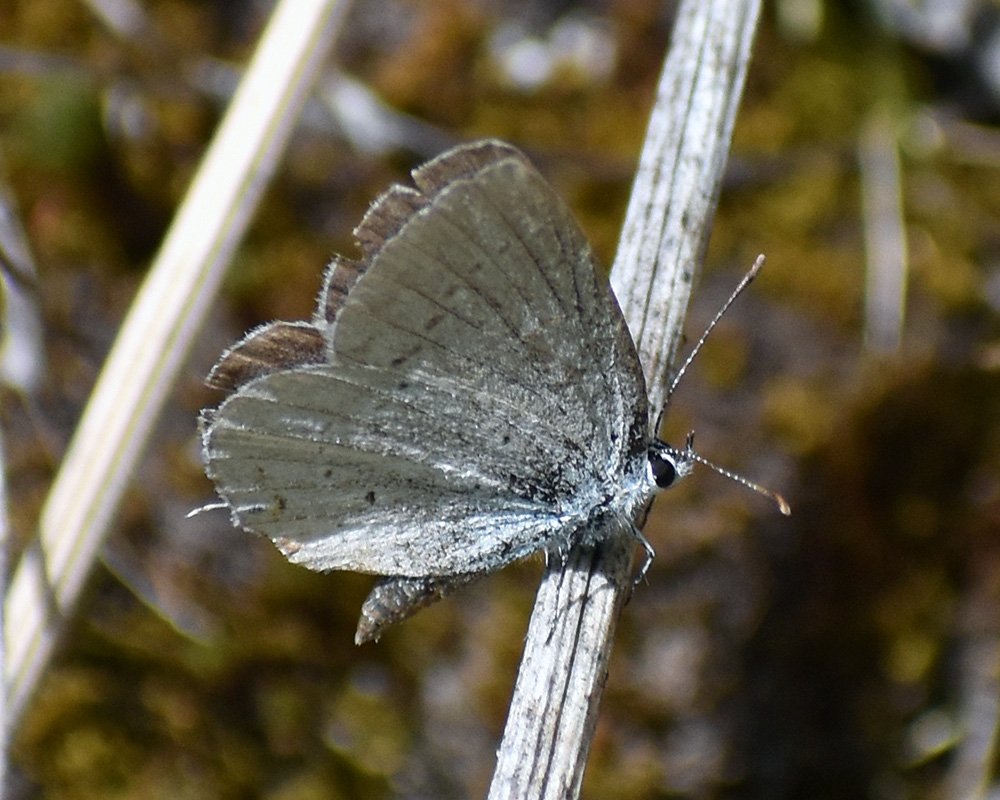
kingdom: Animalia
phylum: Arthropoda
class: Insecta
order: Lepidoptera
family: Lycaenidae
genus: Elkalyce
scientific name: Elkalyce amyntula
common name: Western Tailed-Blue
